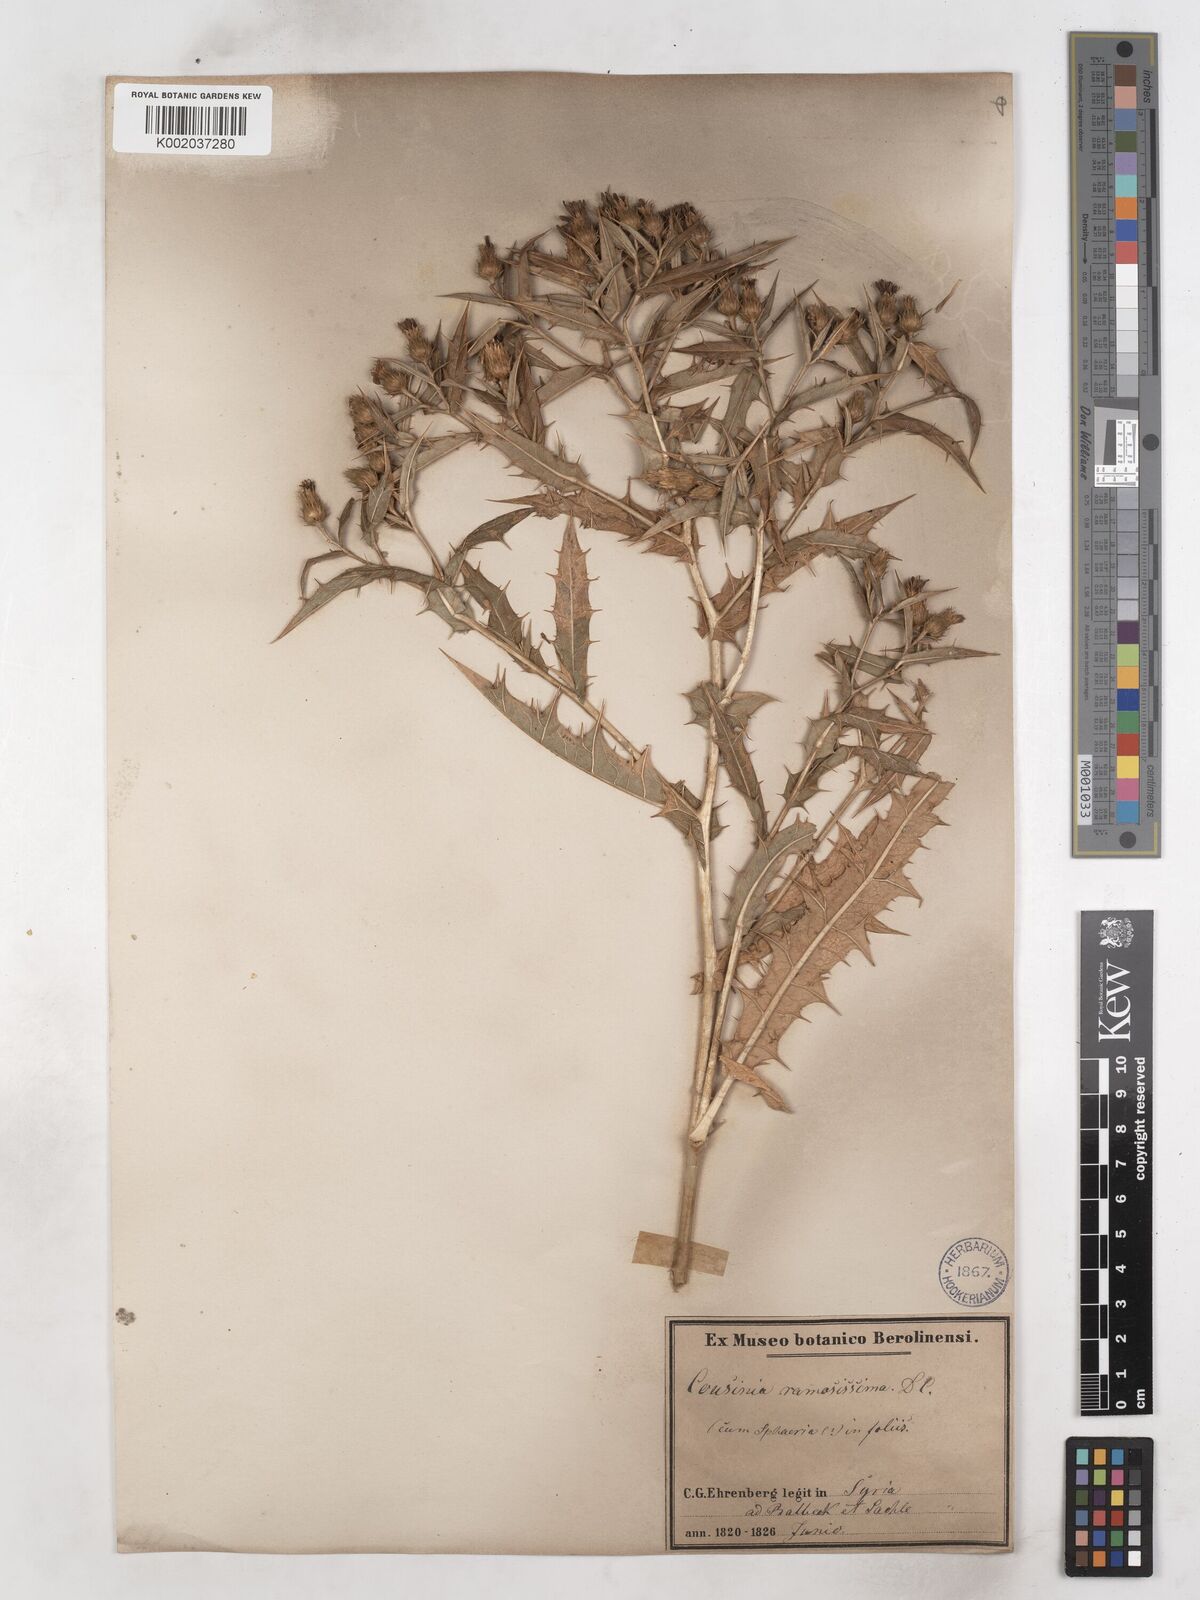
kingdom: Plantae
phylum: Tracheophyta
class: Magnoliopsida
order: Asterales
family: Asteraceae
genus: Cousinia
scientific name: Cousinia ramosissima
